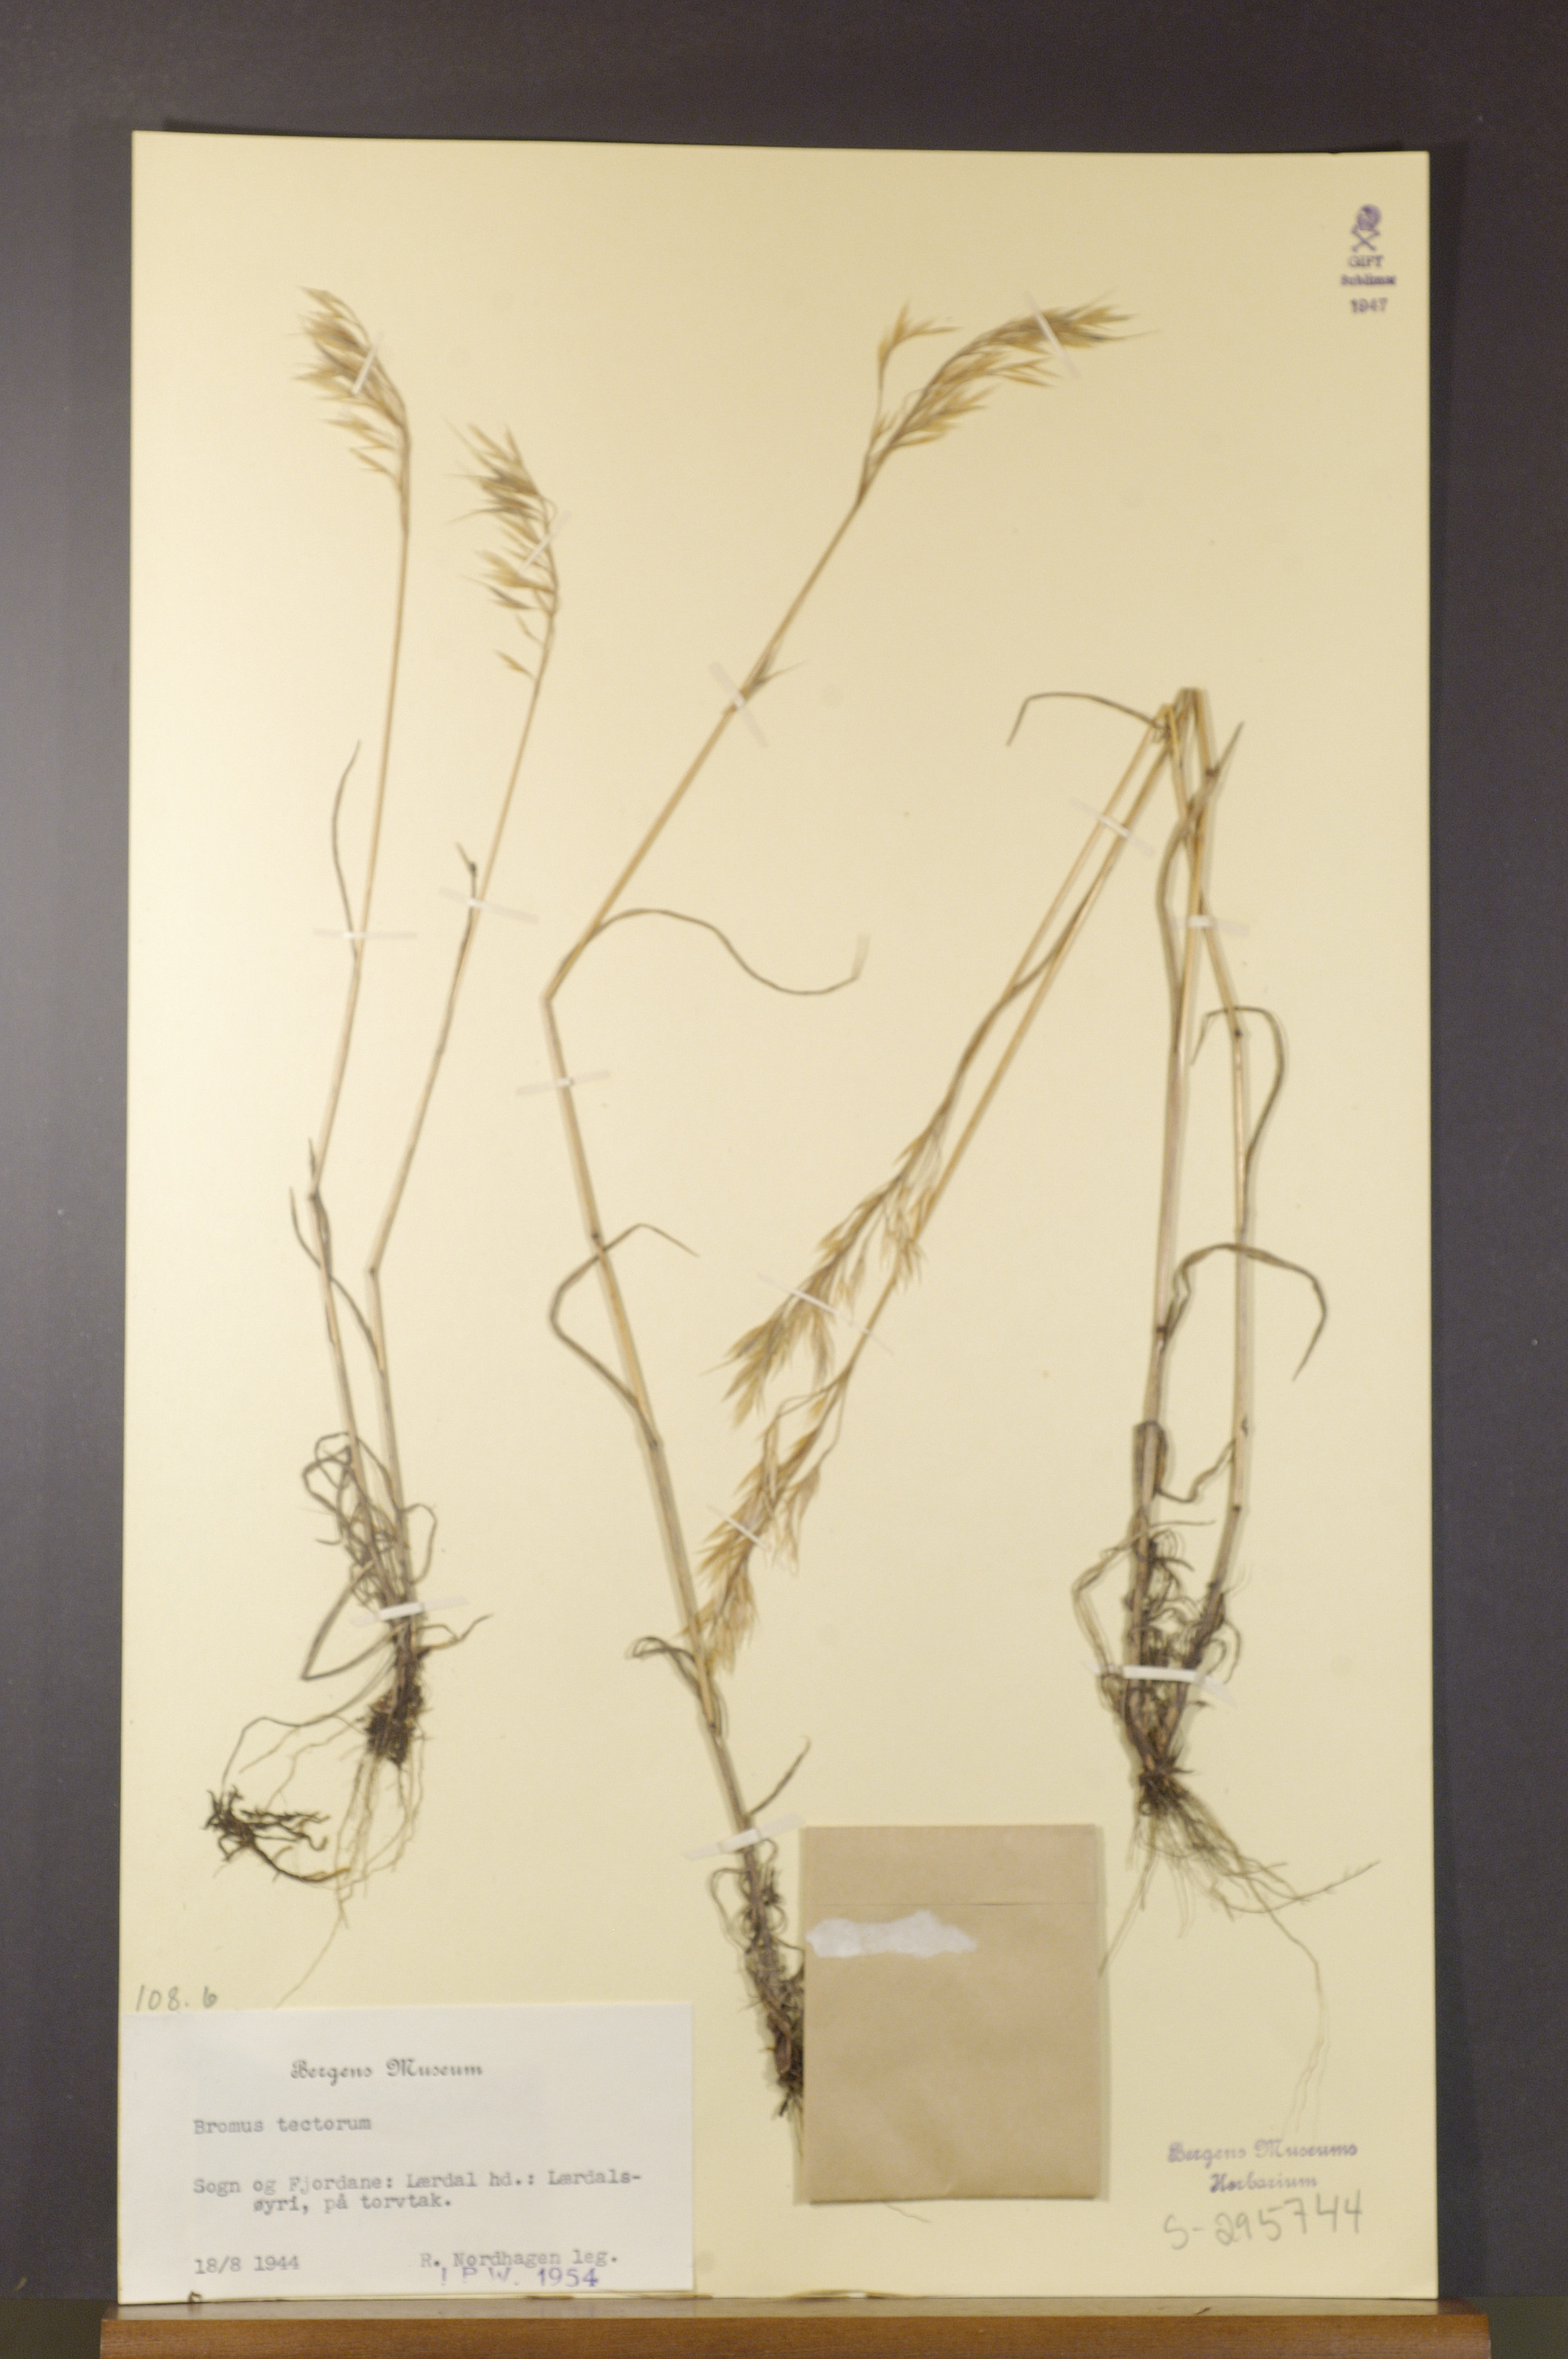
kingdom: Plantae
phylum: Tracheophyta
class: Liliopsida
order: Poales
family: Poaceae
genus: Bromus
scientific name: Bromus tectorum
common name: Cheatgrass
